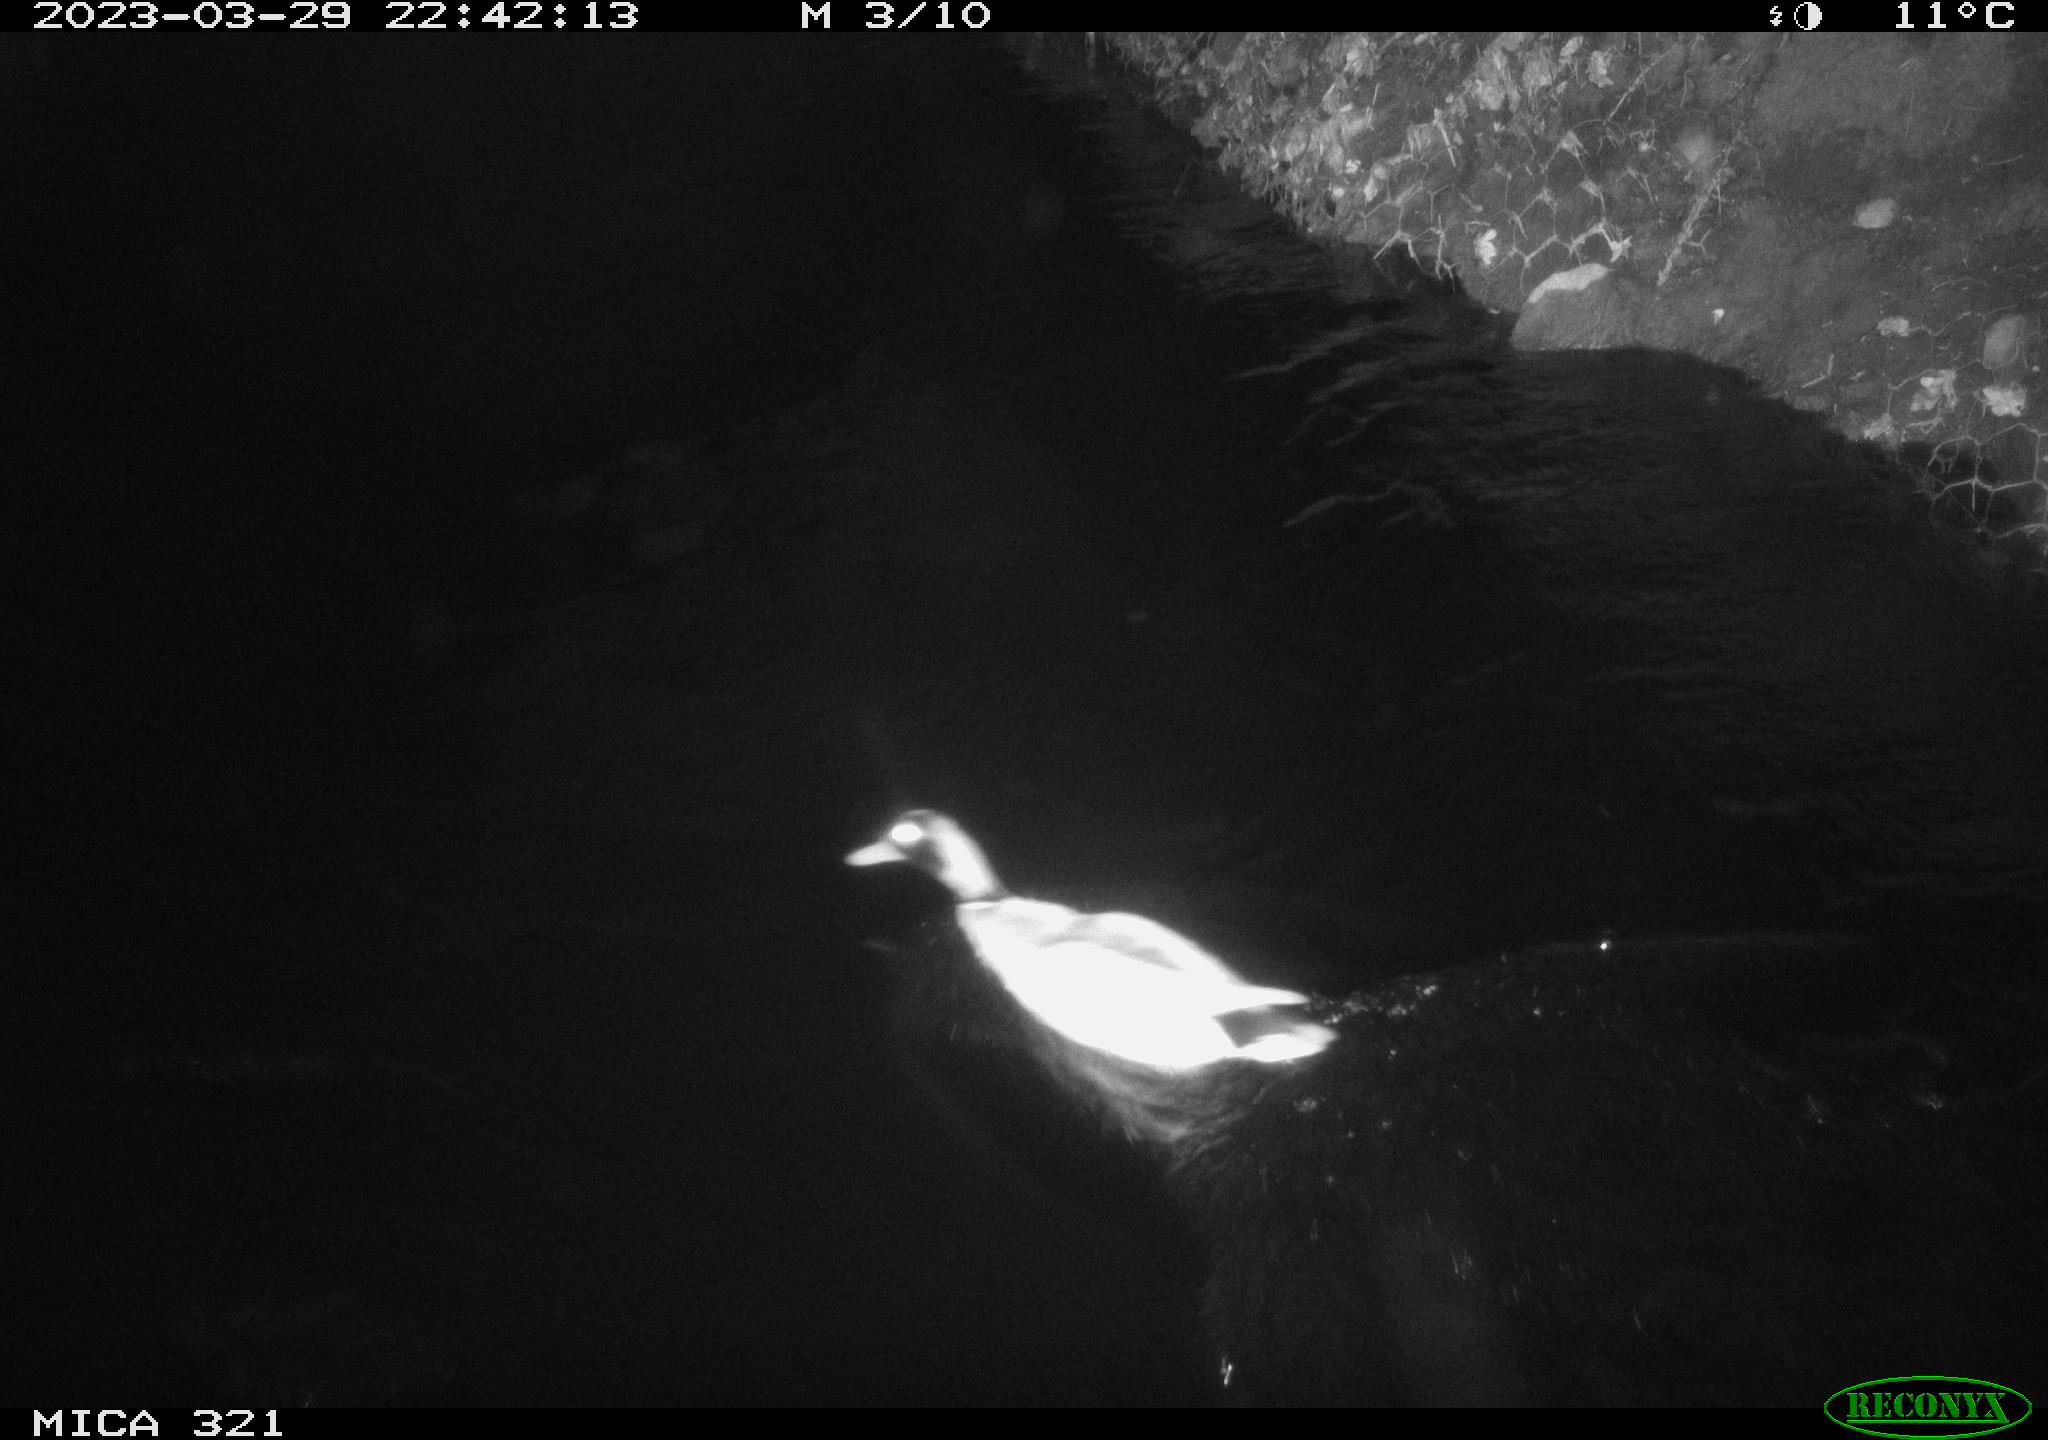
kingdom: Animalia
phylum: Chordata
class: Aves
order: Anseriformes
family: Anatidae
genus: Anas
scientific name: Anas
